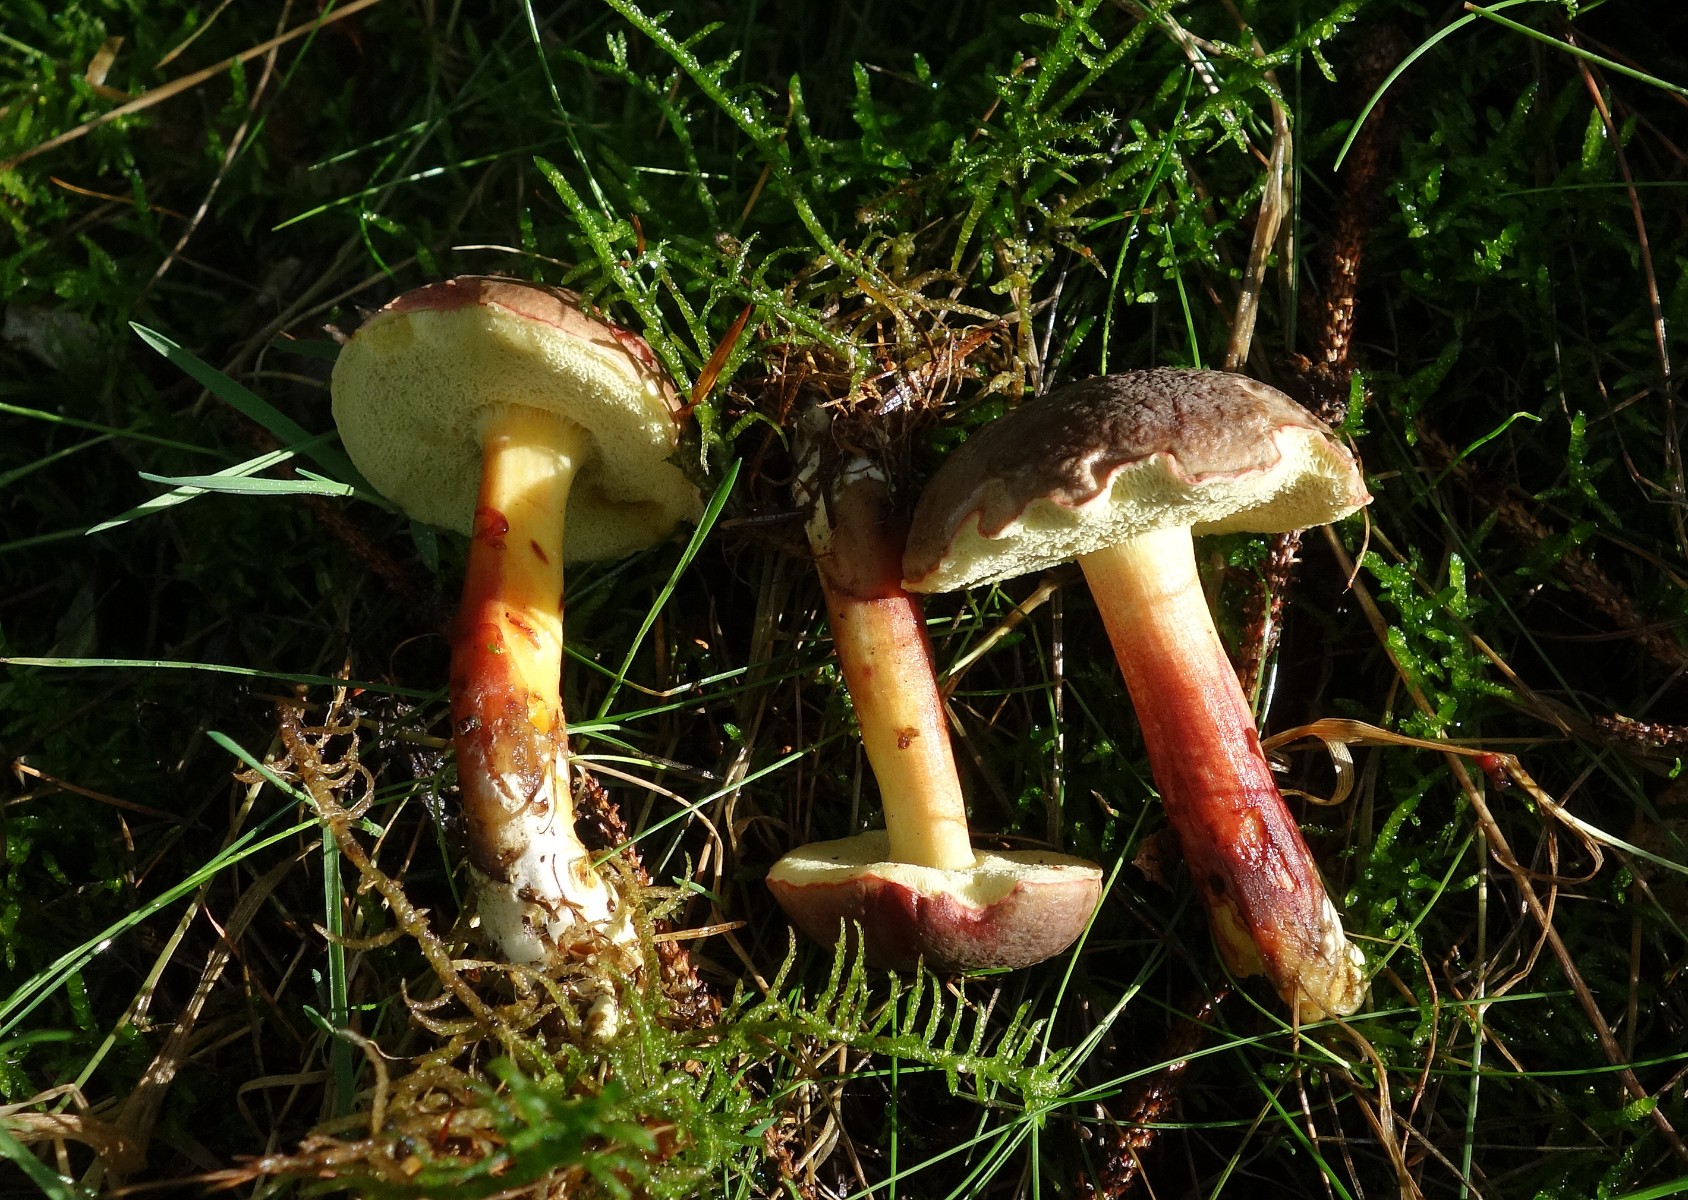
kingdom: Fungi
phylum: Basidiomycota
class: Agaricomycetes
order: Boletales
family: Boletaceae
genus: Xerocomellus
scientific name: Xerocomellus pruinatus
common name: dugget rørhat
